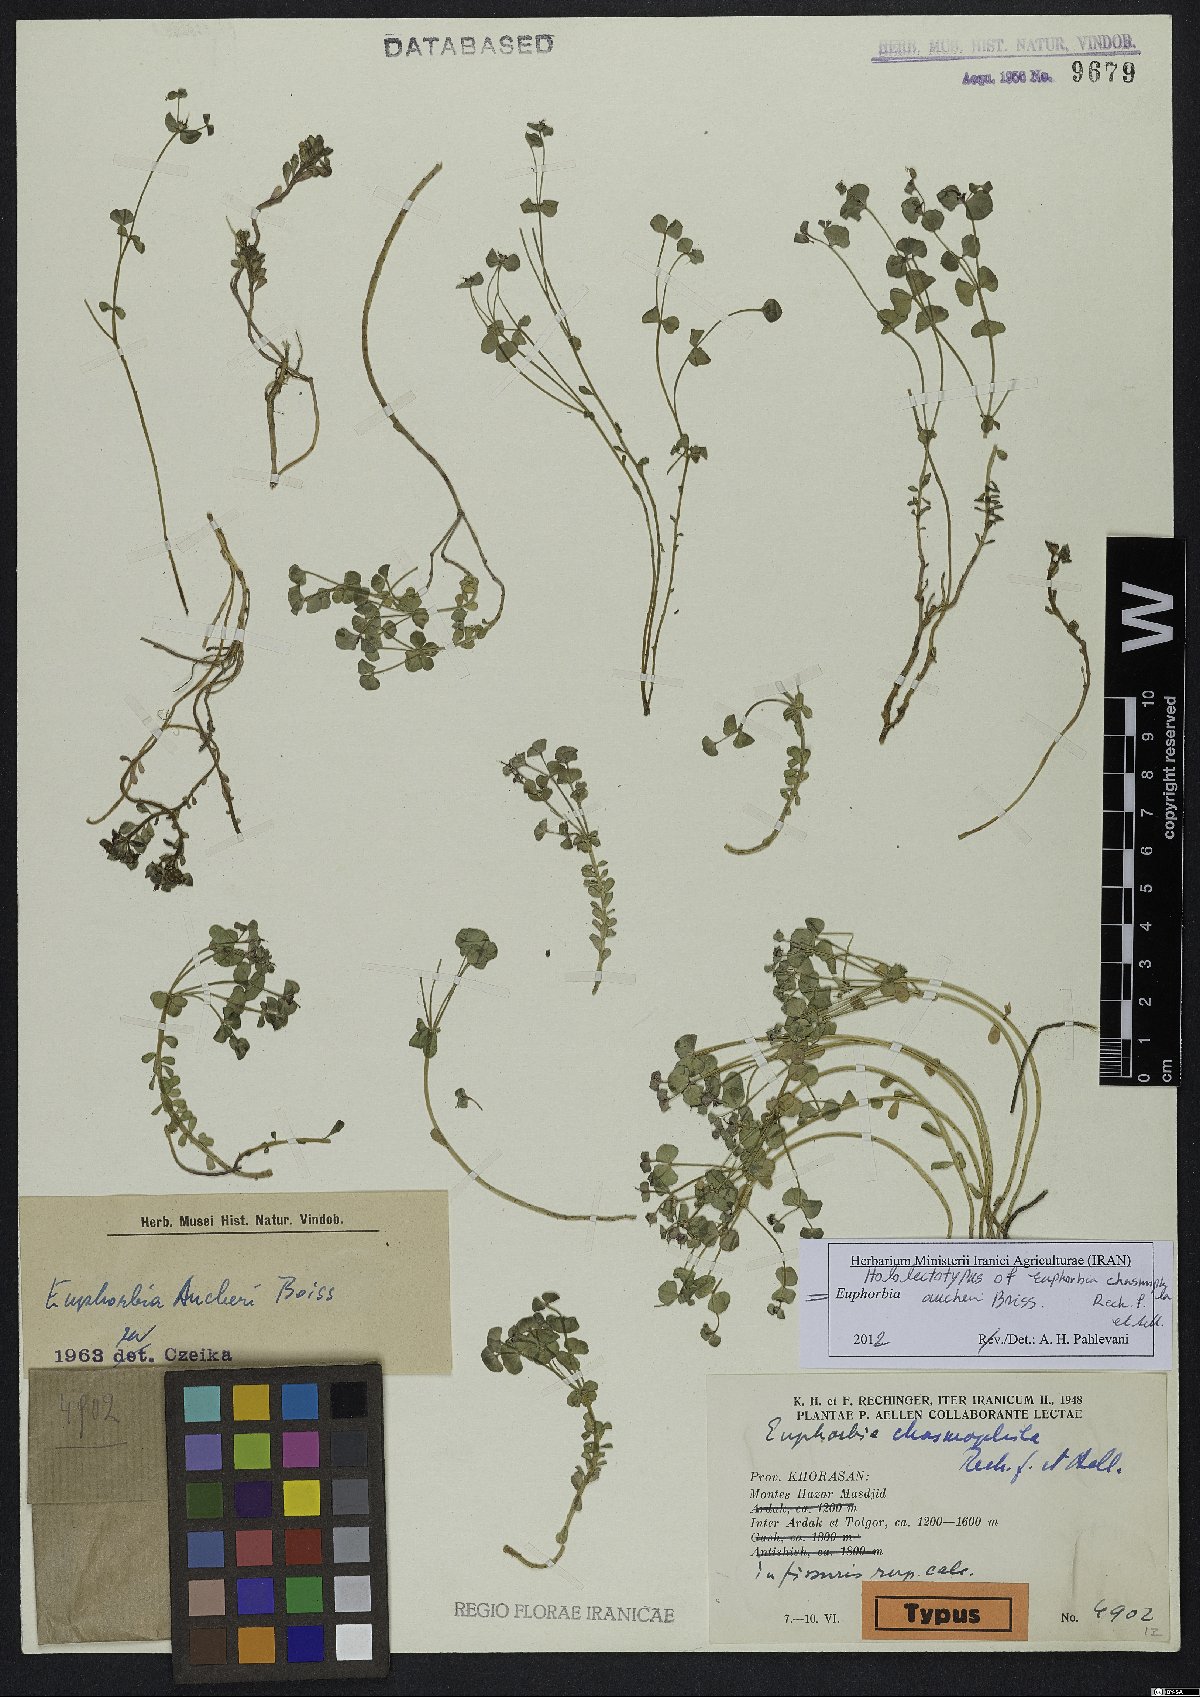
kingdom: Plantae
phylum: Tracheophyta
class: Magnoliopsida
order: Malpighiales
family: Euphorbiaceae
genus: Euphorbia
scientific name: Euphorbia aucheri
